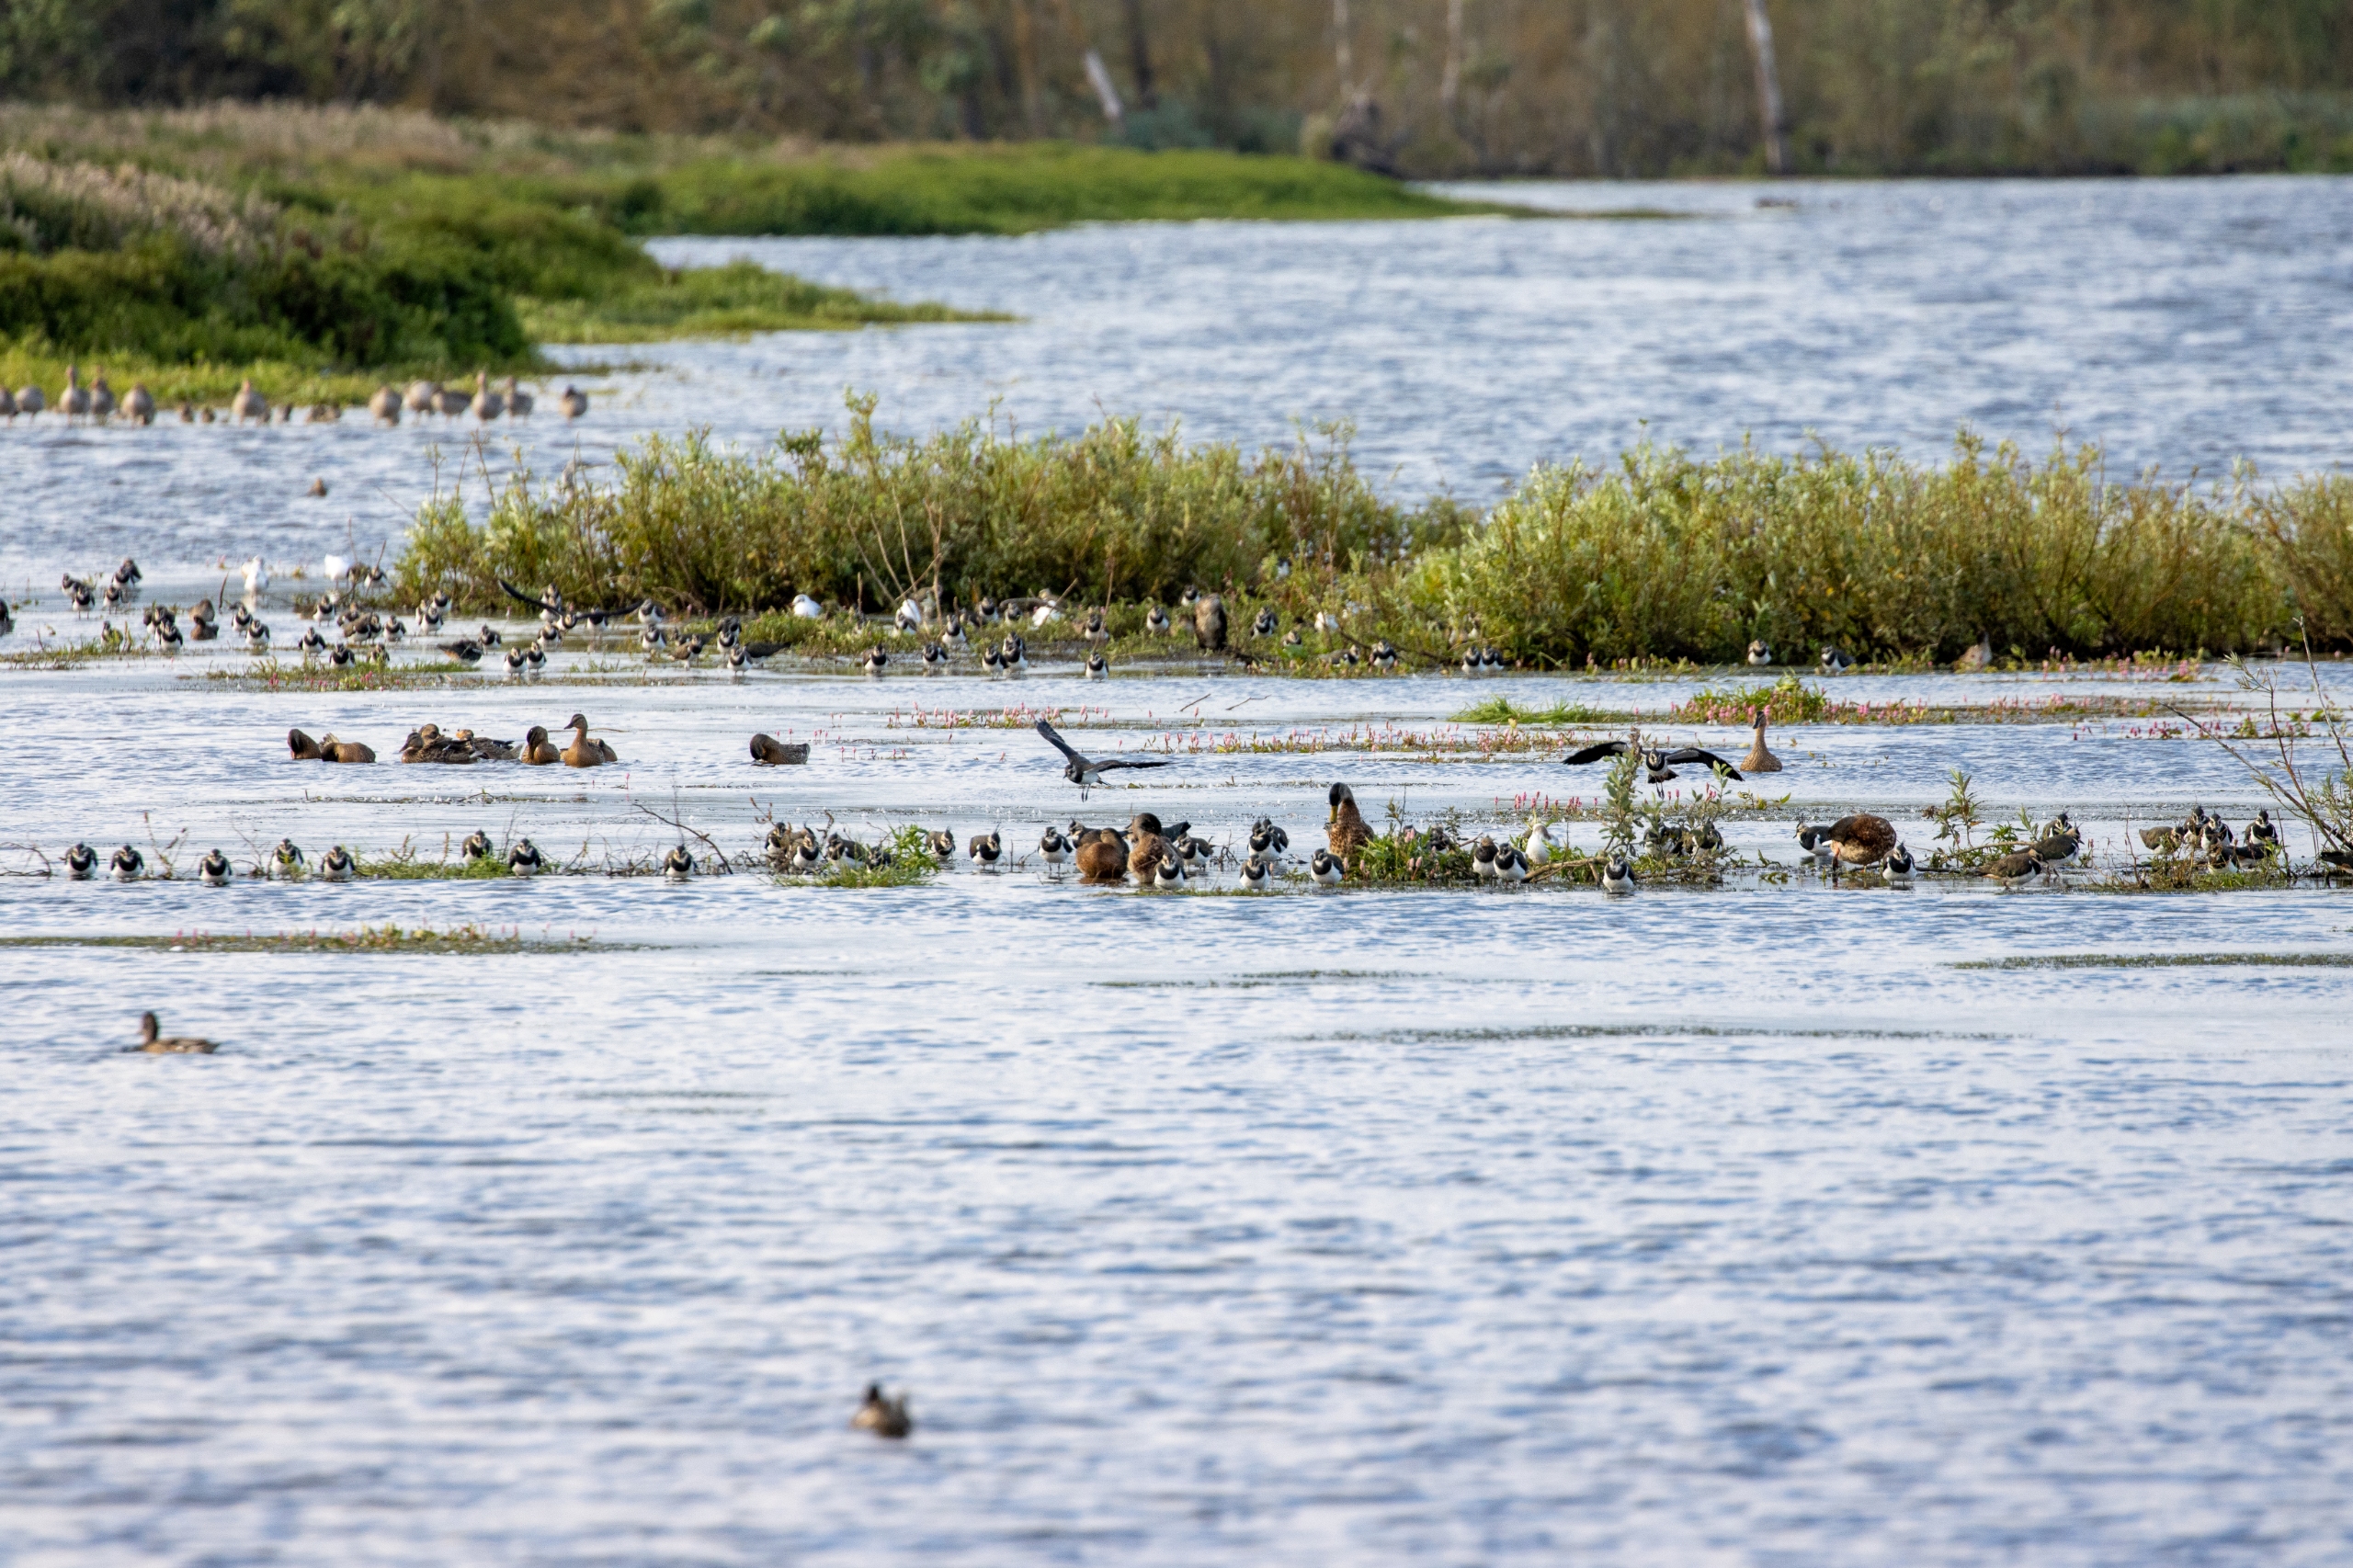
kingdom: Animalia
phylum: Chordata
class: Aves
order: Charadriiformes
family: Charadriidae
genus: Vanellus
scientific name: Vanellus vanellus
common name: Vibe
